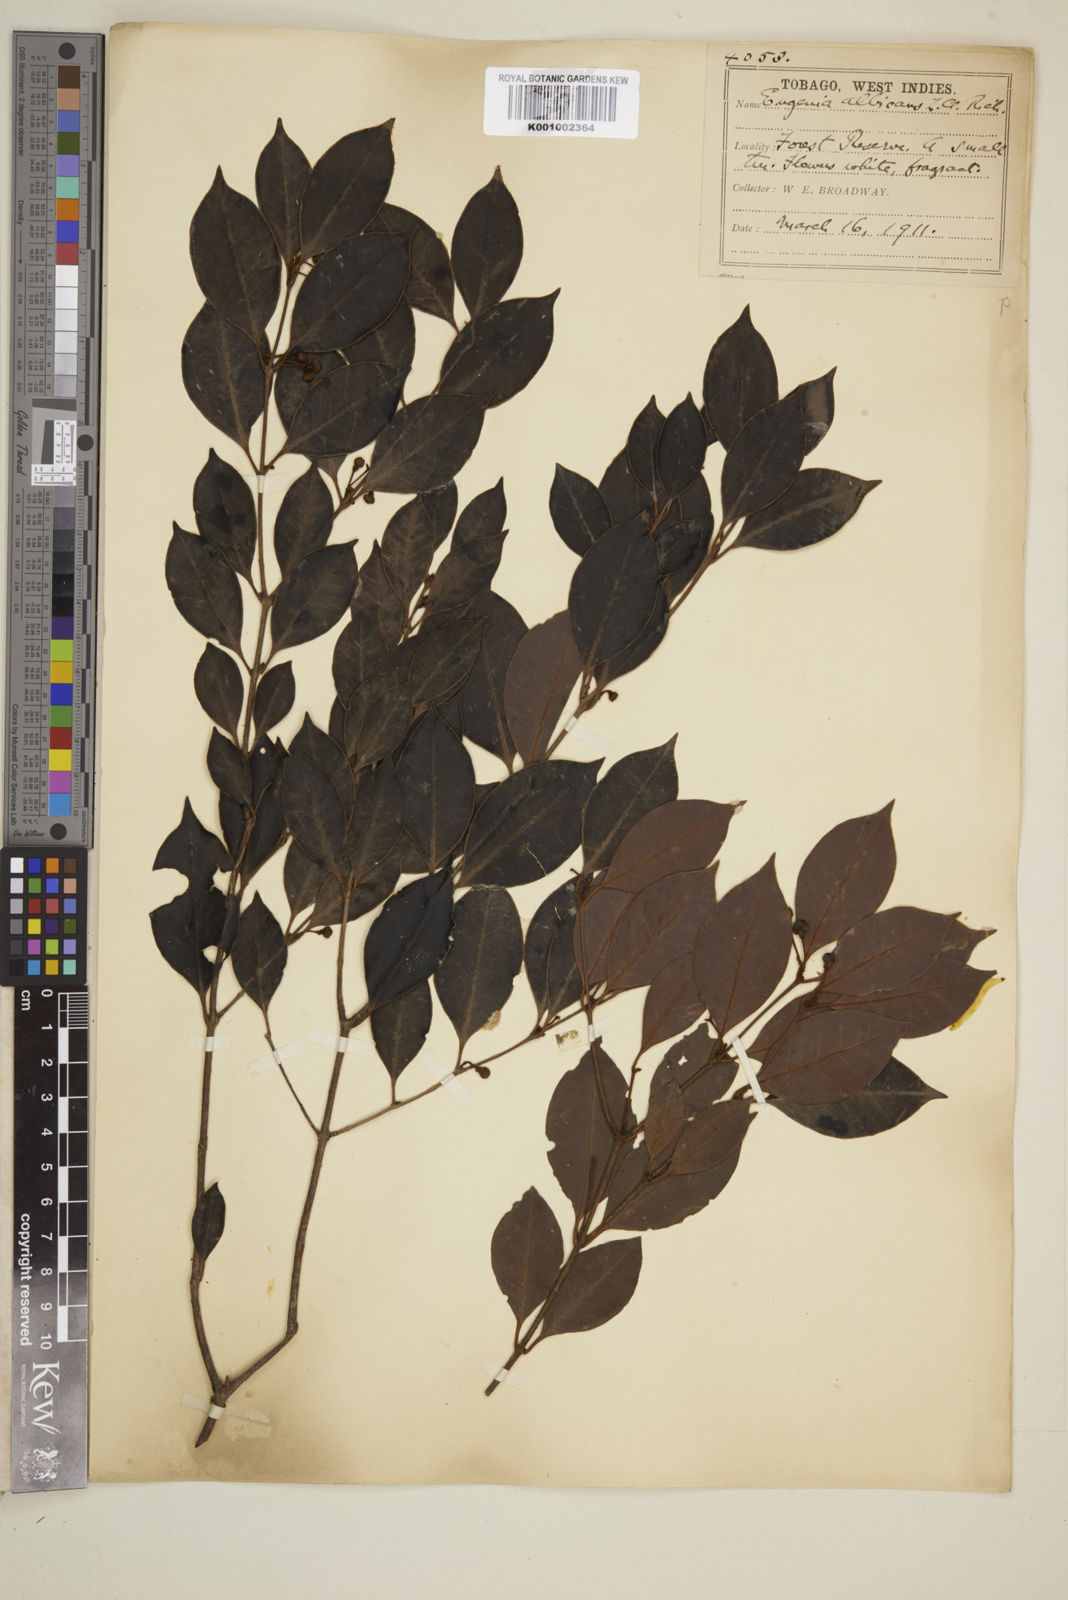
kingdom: Plantae
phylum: Tracheophyta
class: Magnoliopsida
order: Myrtales
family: Myrtaceae
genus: Eugenia
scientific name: Eugenia albicans
